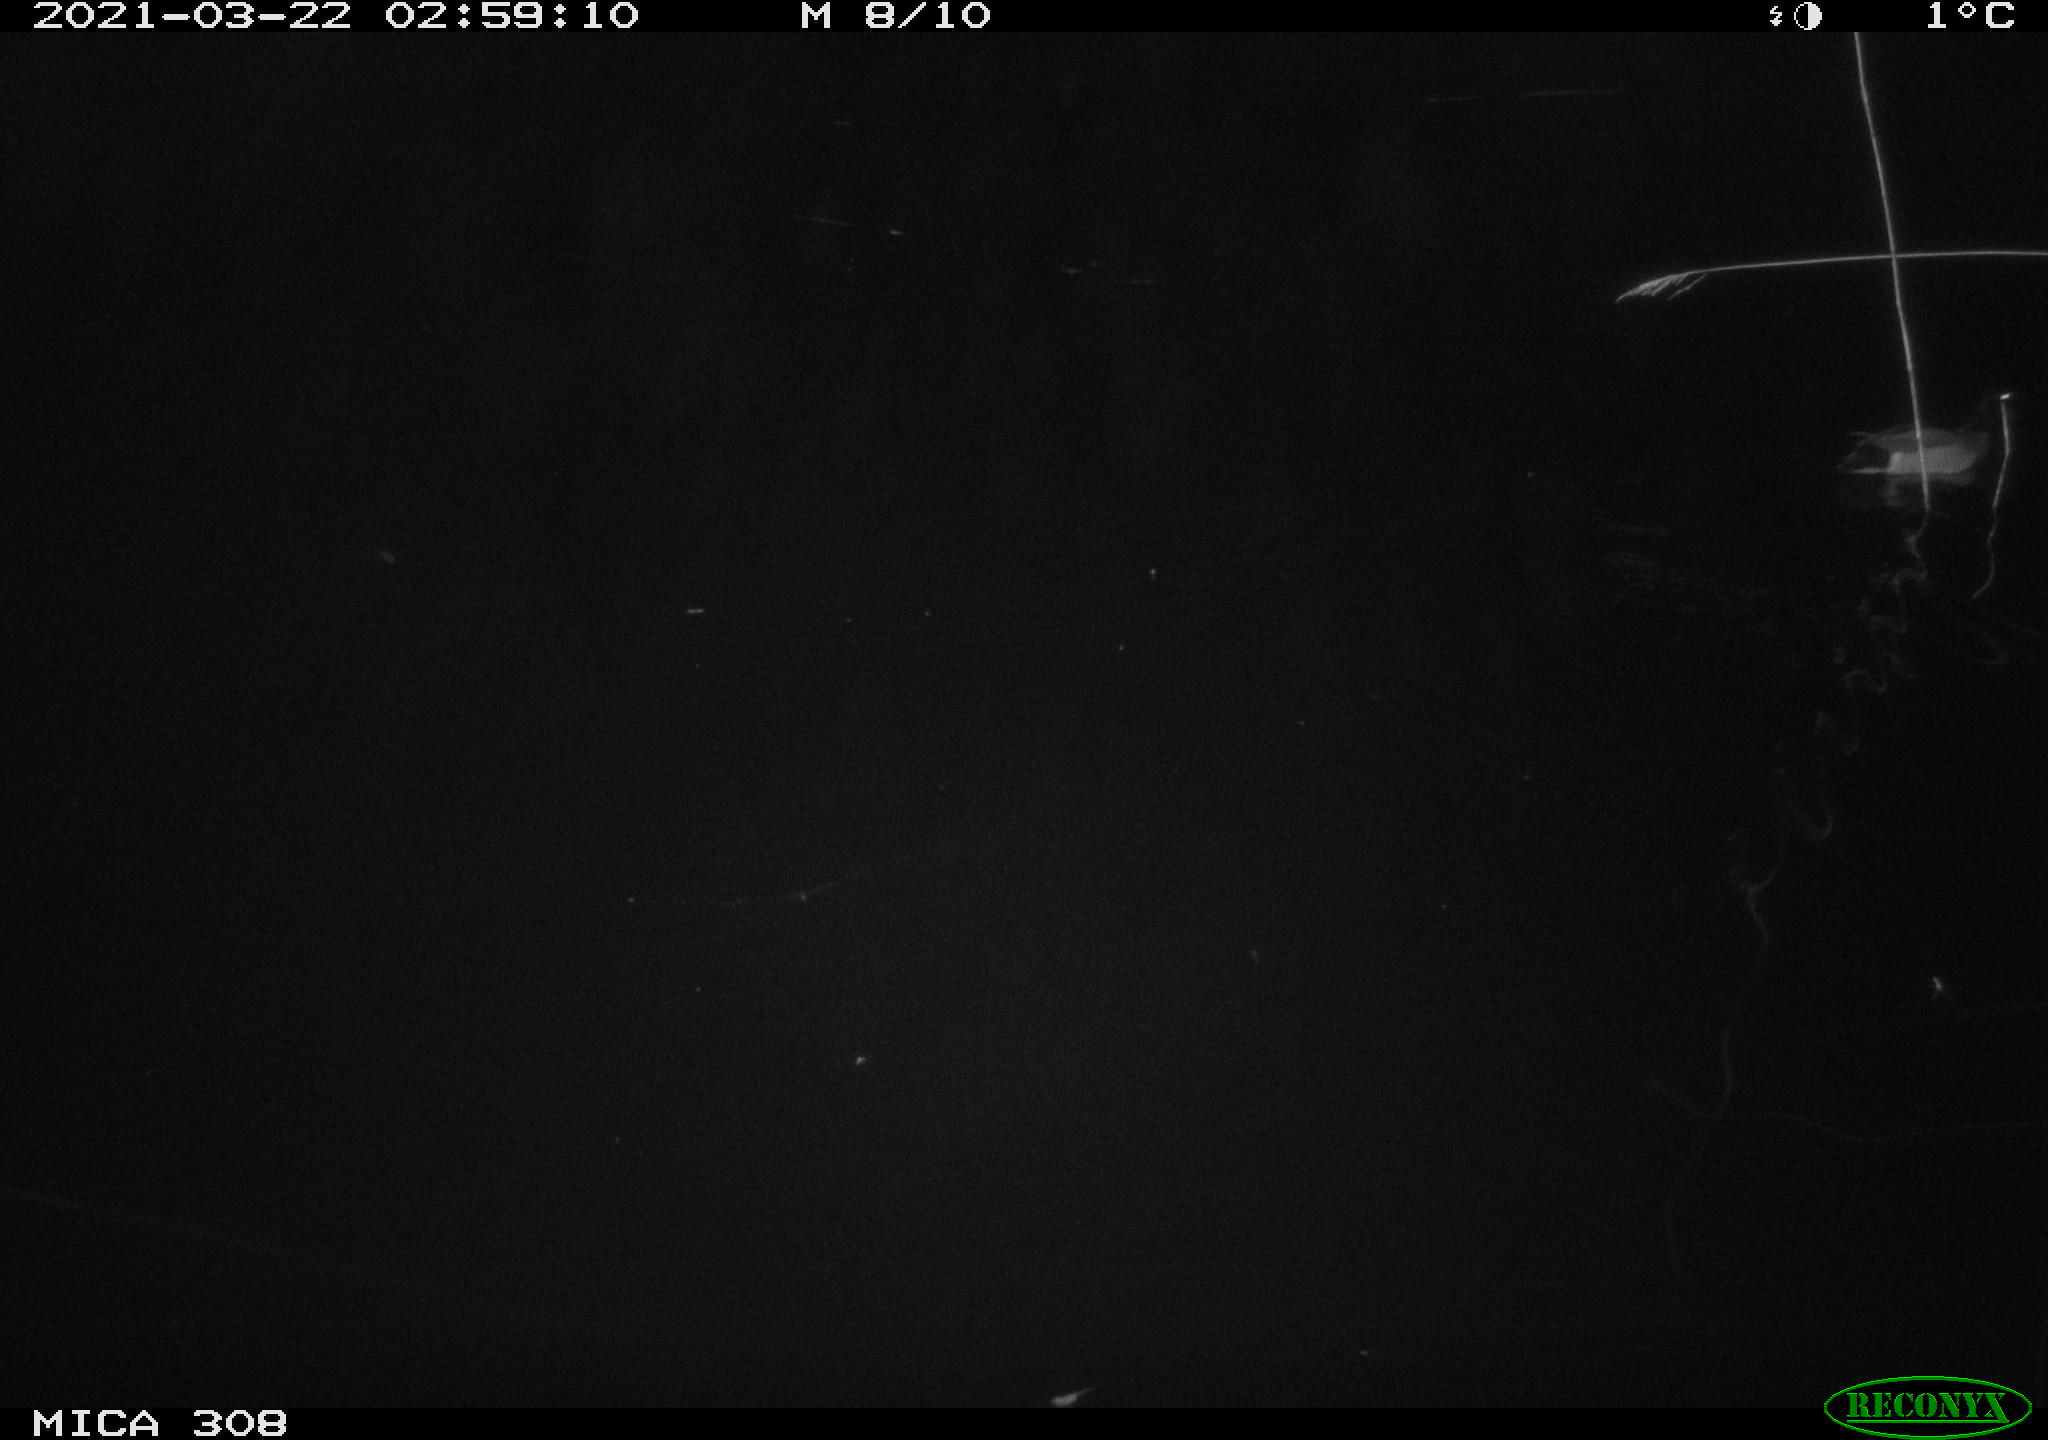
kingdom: Animalia
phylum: Chordata
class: Aves
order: Anseriformes
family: Anatidae
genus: Anas
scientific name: Anas platyrhynchos
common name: Mallard
